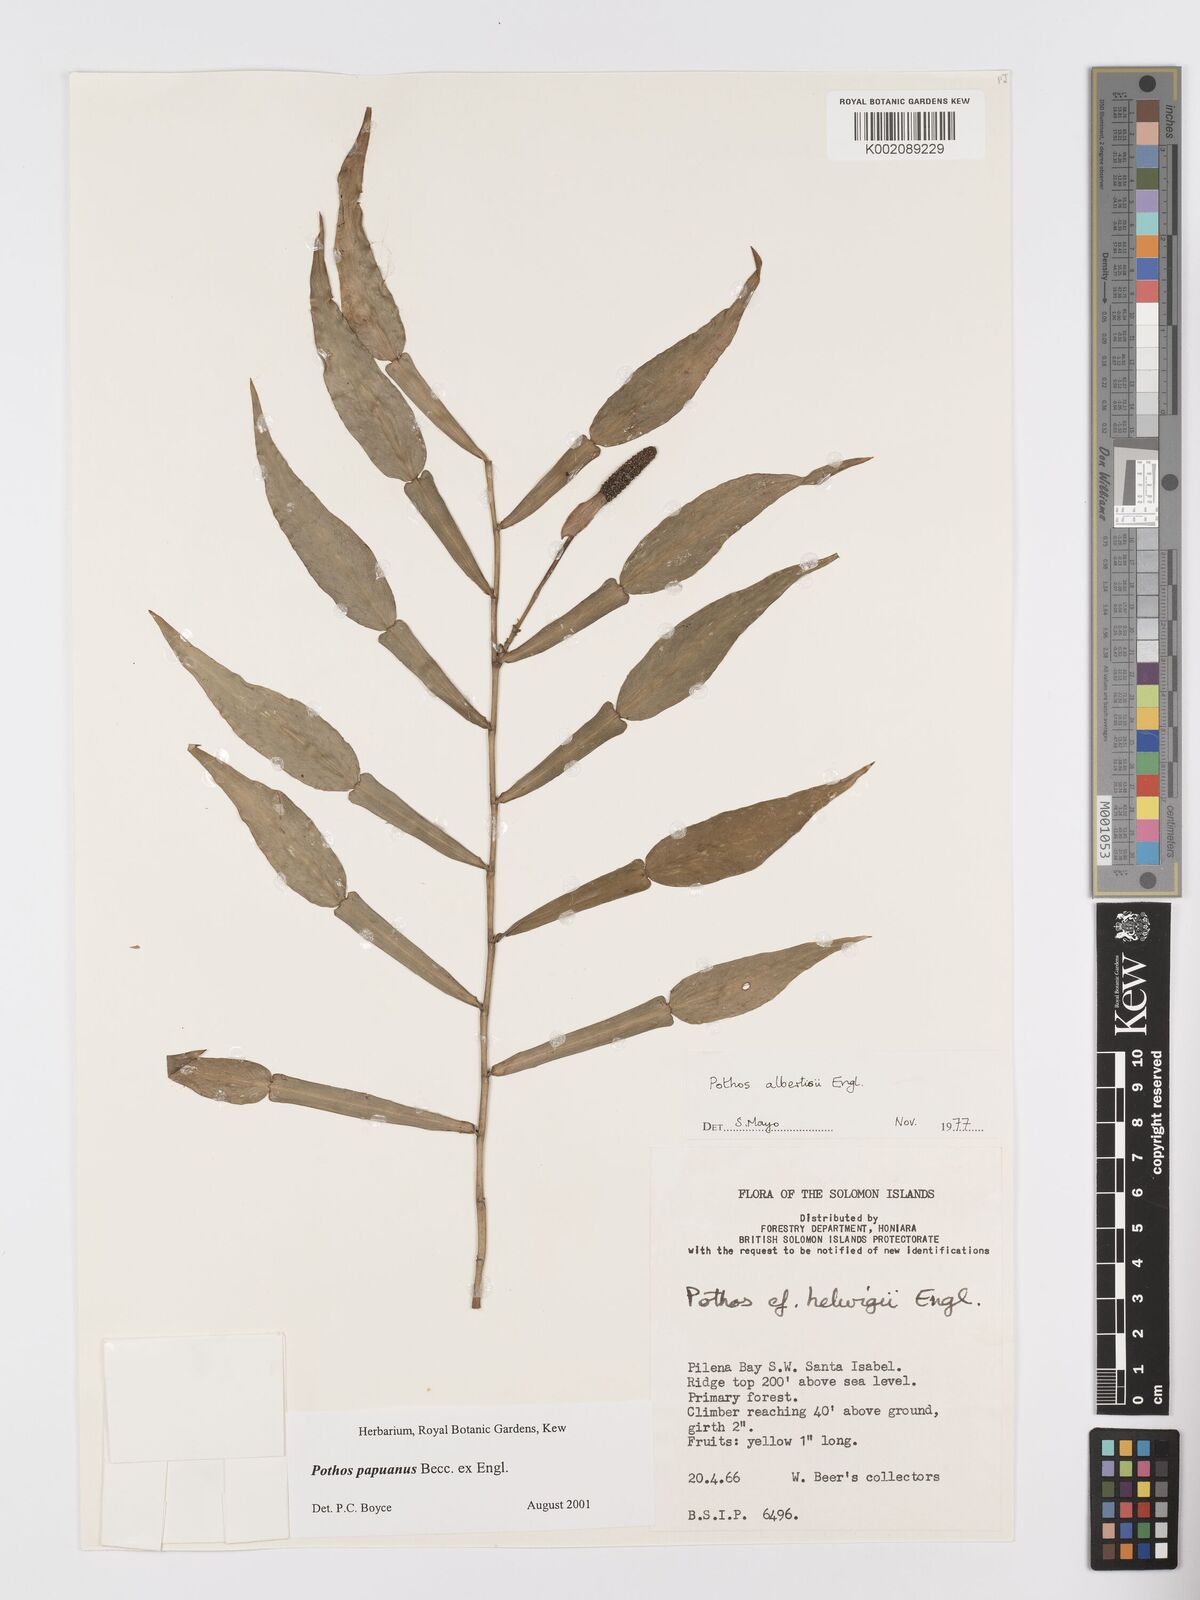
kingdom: Plantae
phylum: Tracheophyta
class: Liliopsida
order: Alismatales
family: Araceae
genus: Pothos
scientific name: Pothos papuanus
